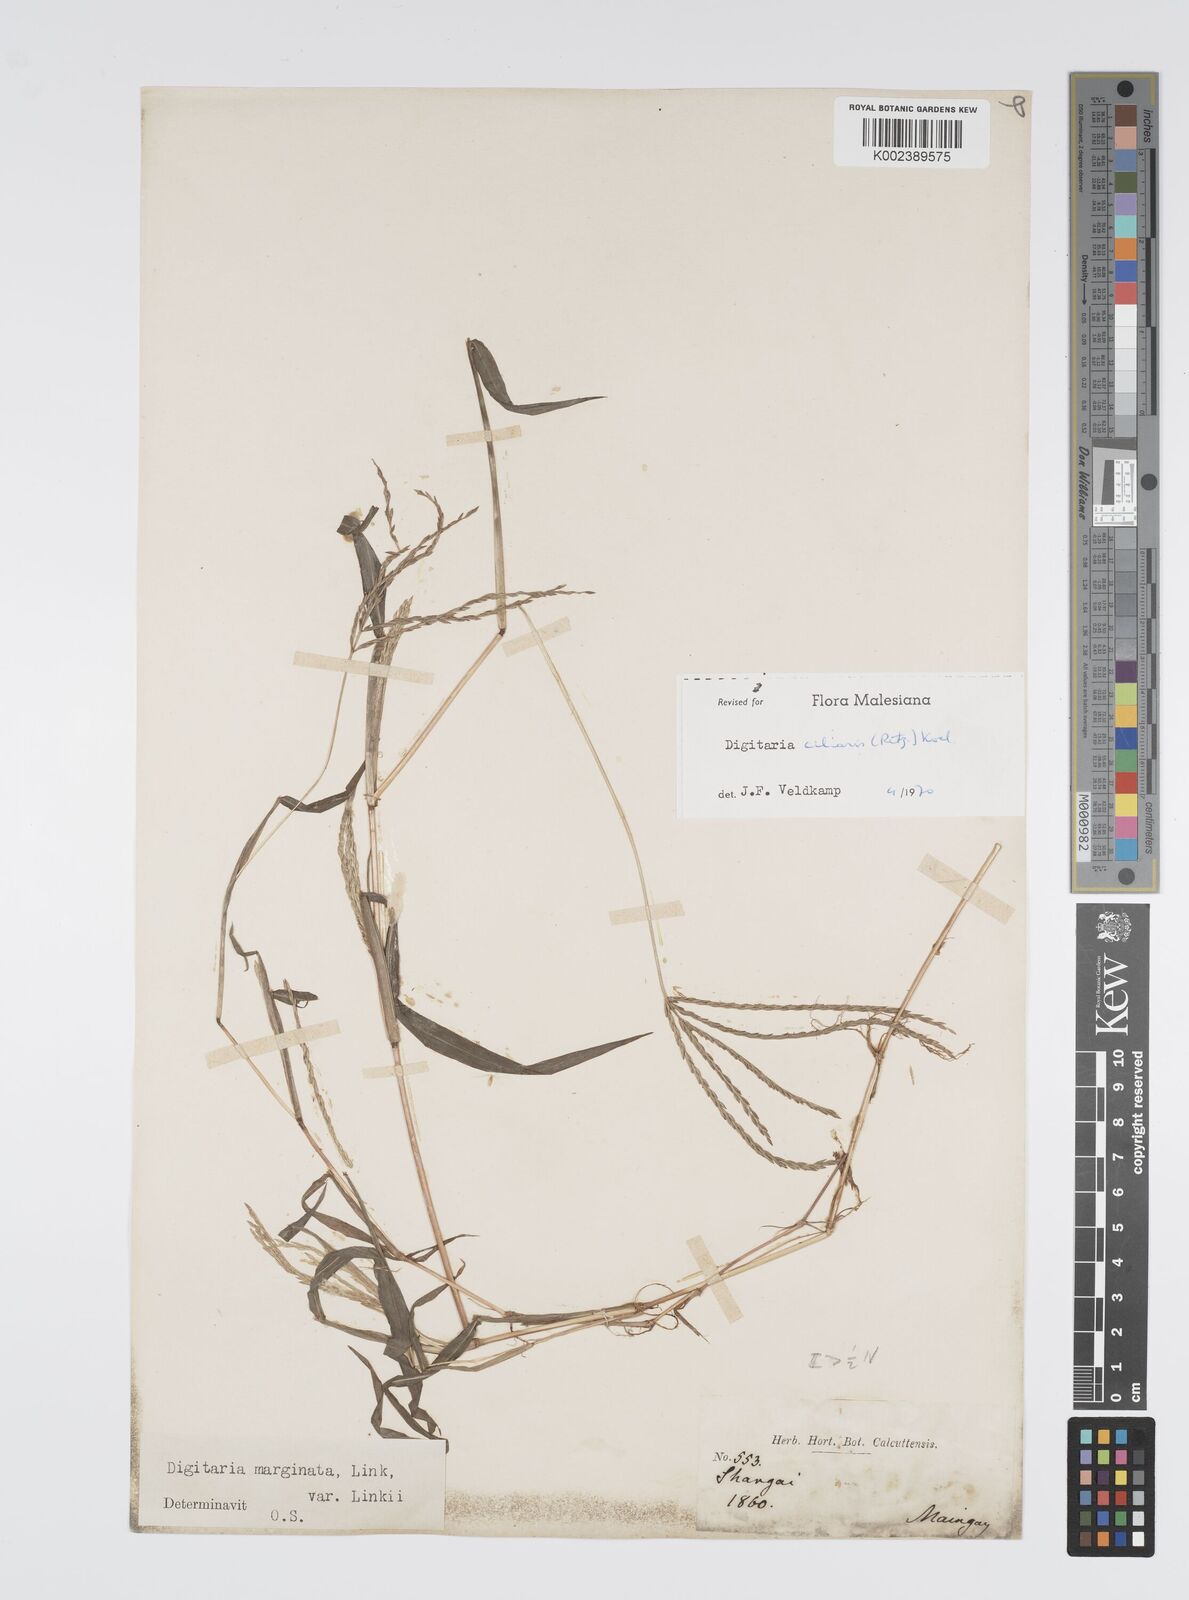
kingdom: Plantae
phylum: Tracheophyta
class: Liliopsida
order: Poales
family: Poaceae
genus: Digitaria
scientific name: Digitaria ciliaris
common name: Tropical finger-grass
